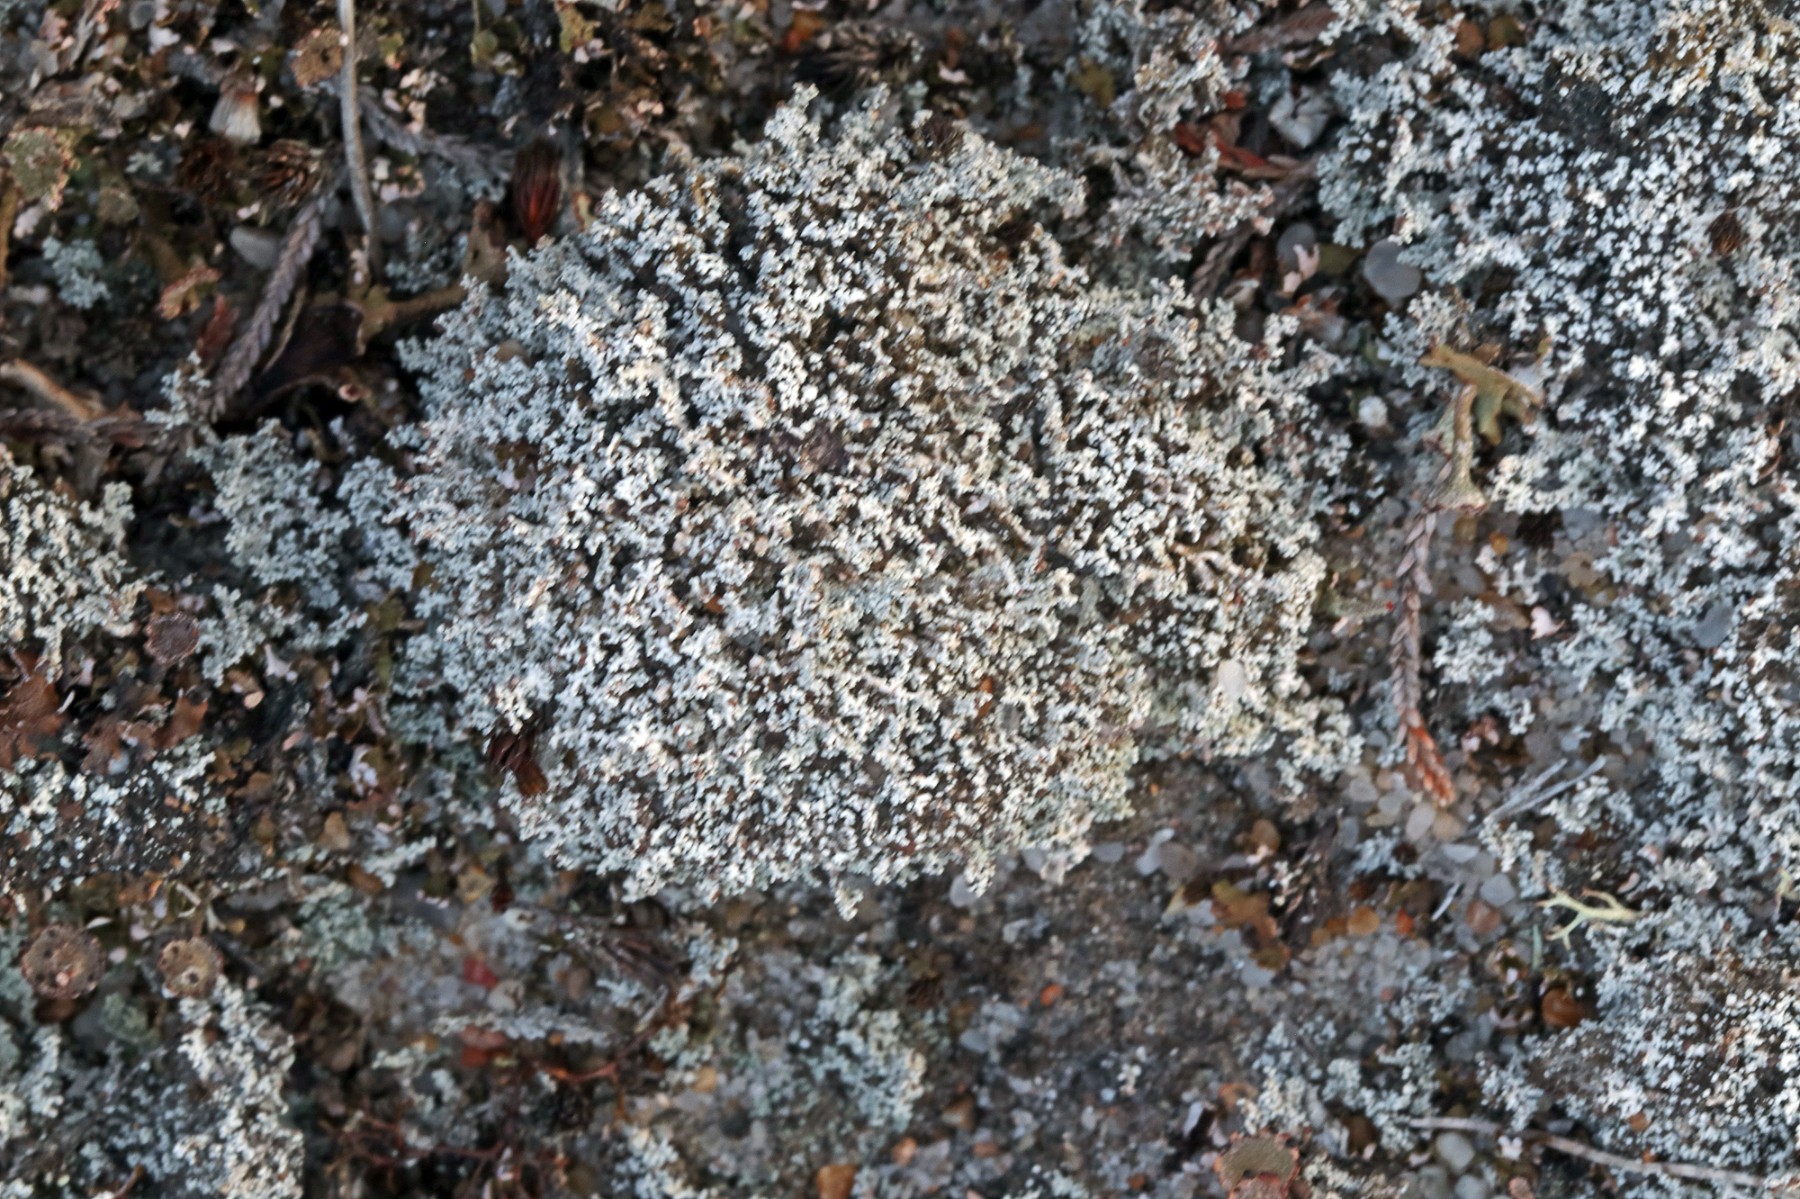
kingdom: Fungi
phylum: Ascomycota
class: Lecanoromycetes
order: Lecanorales
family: Stereocaulaceae
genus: Stereocaulon
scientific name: Stereocaulon condensatum
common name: lav korallav
